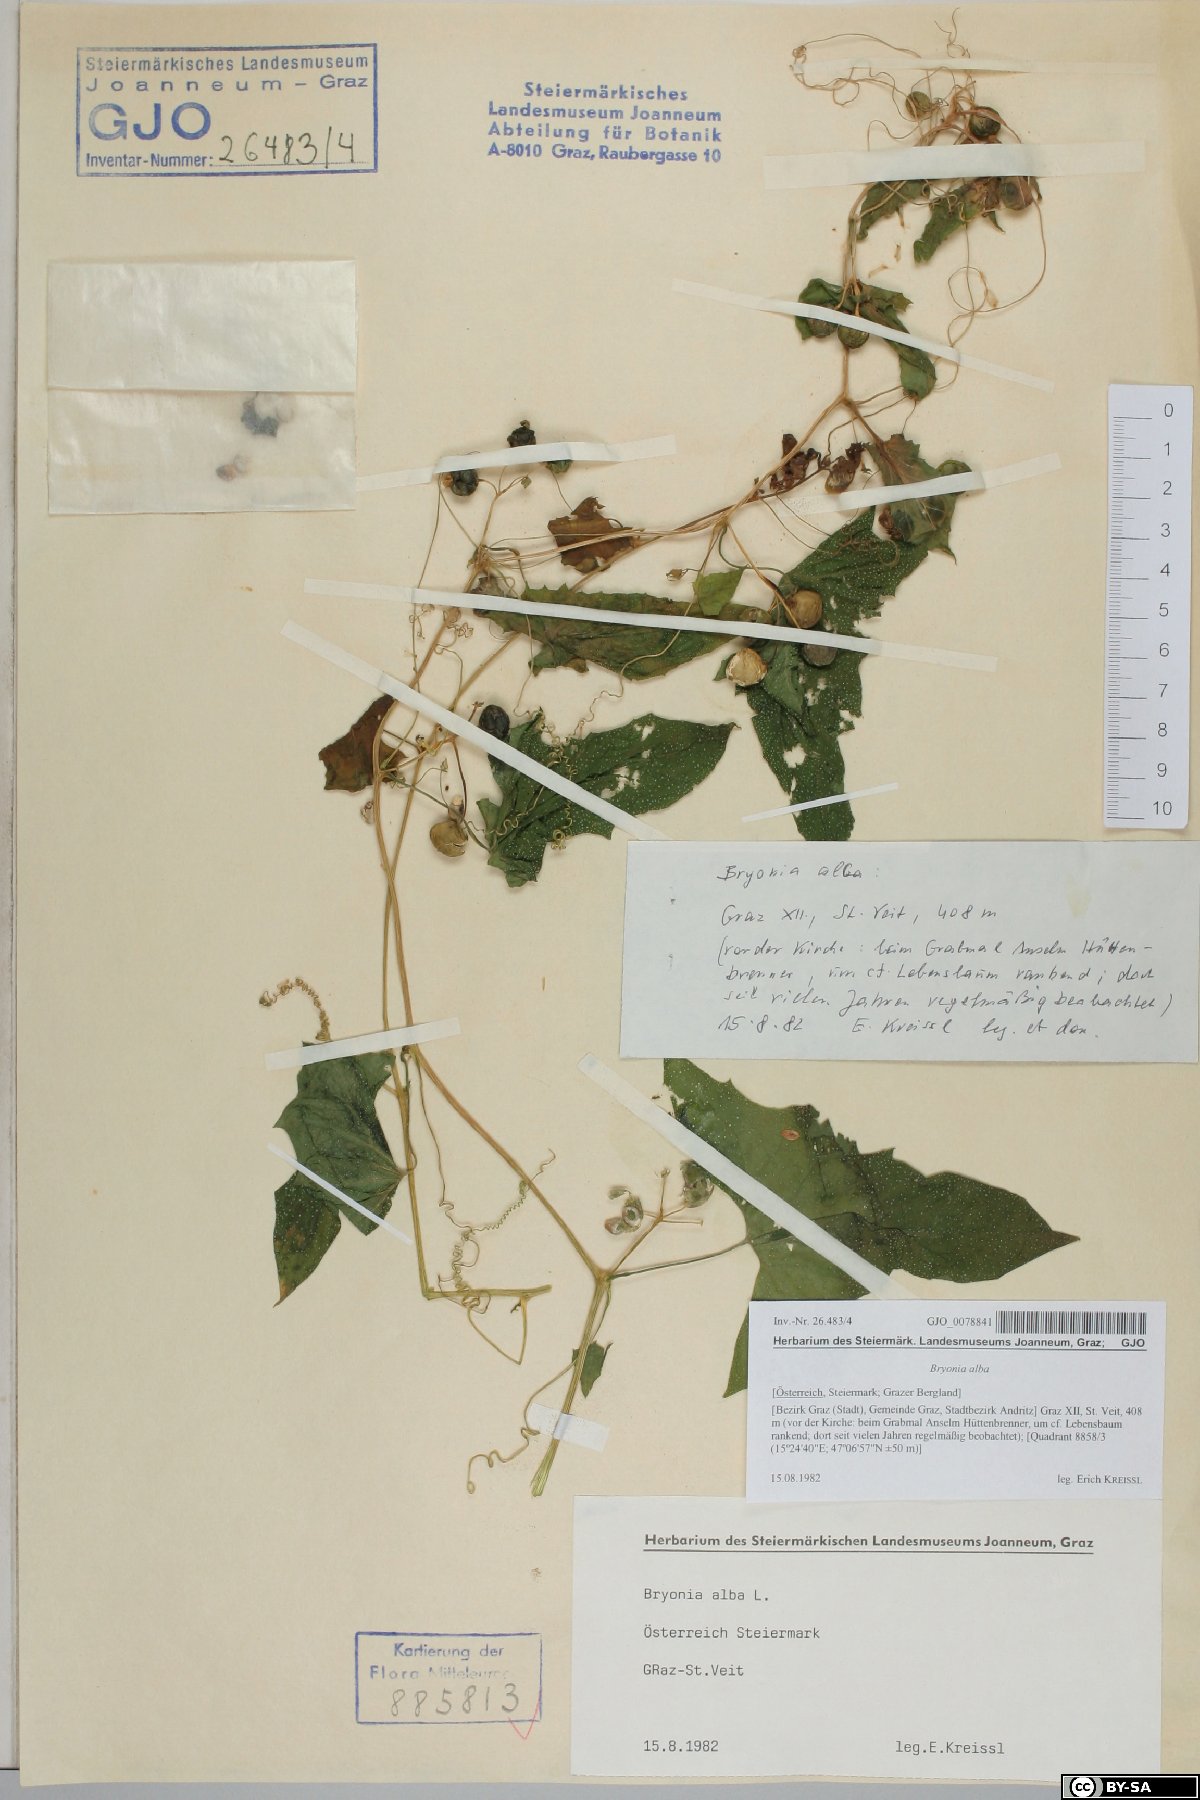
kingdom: Plantae
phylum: Tracheophyta
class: Magnoliopsida
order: Cucurbitales
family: Cucurbitaceae
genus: Bryonia
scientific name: Bryonia alba
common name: White bryony
